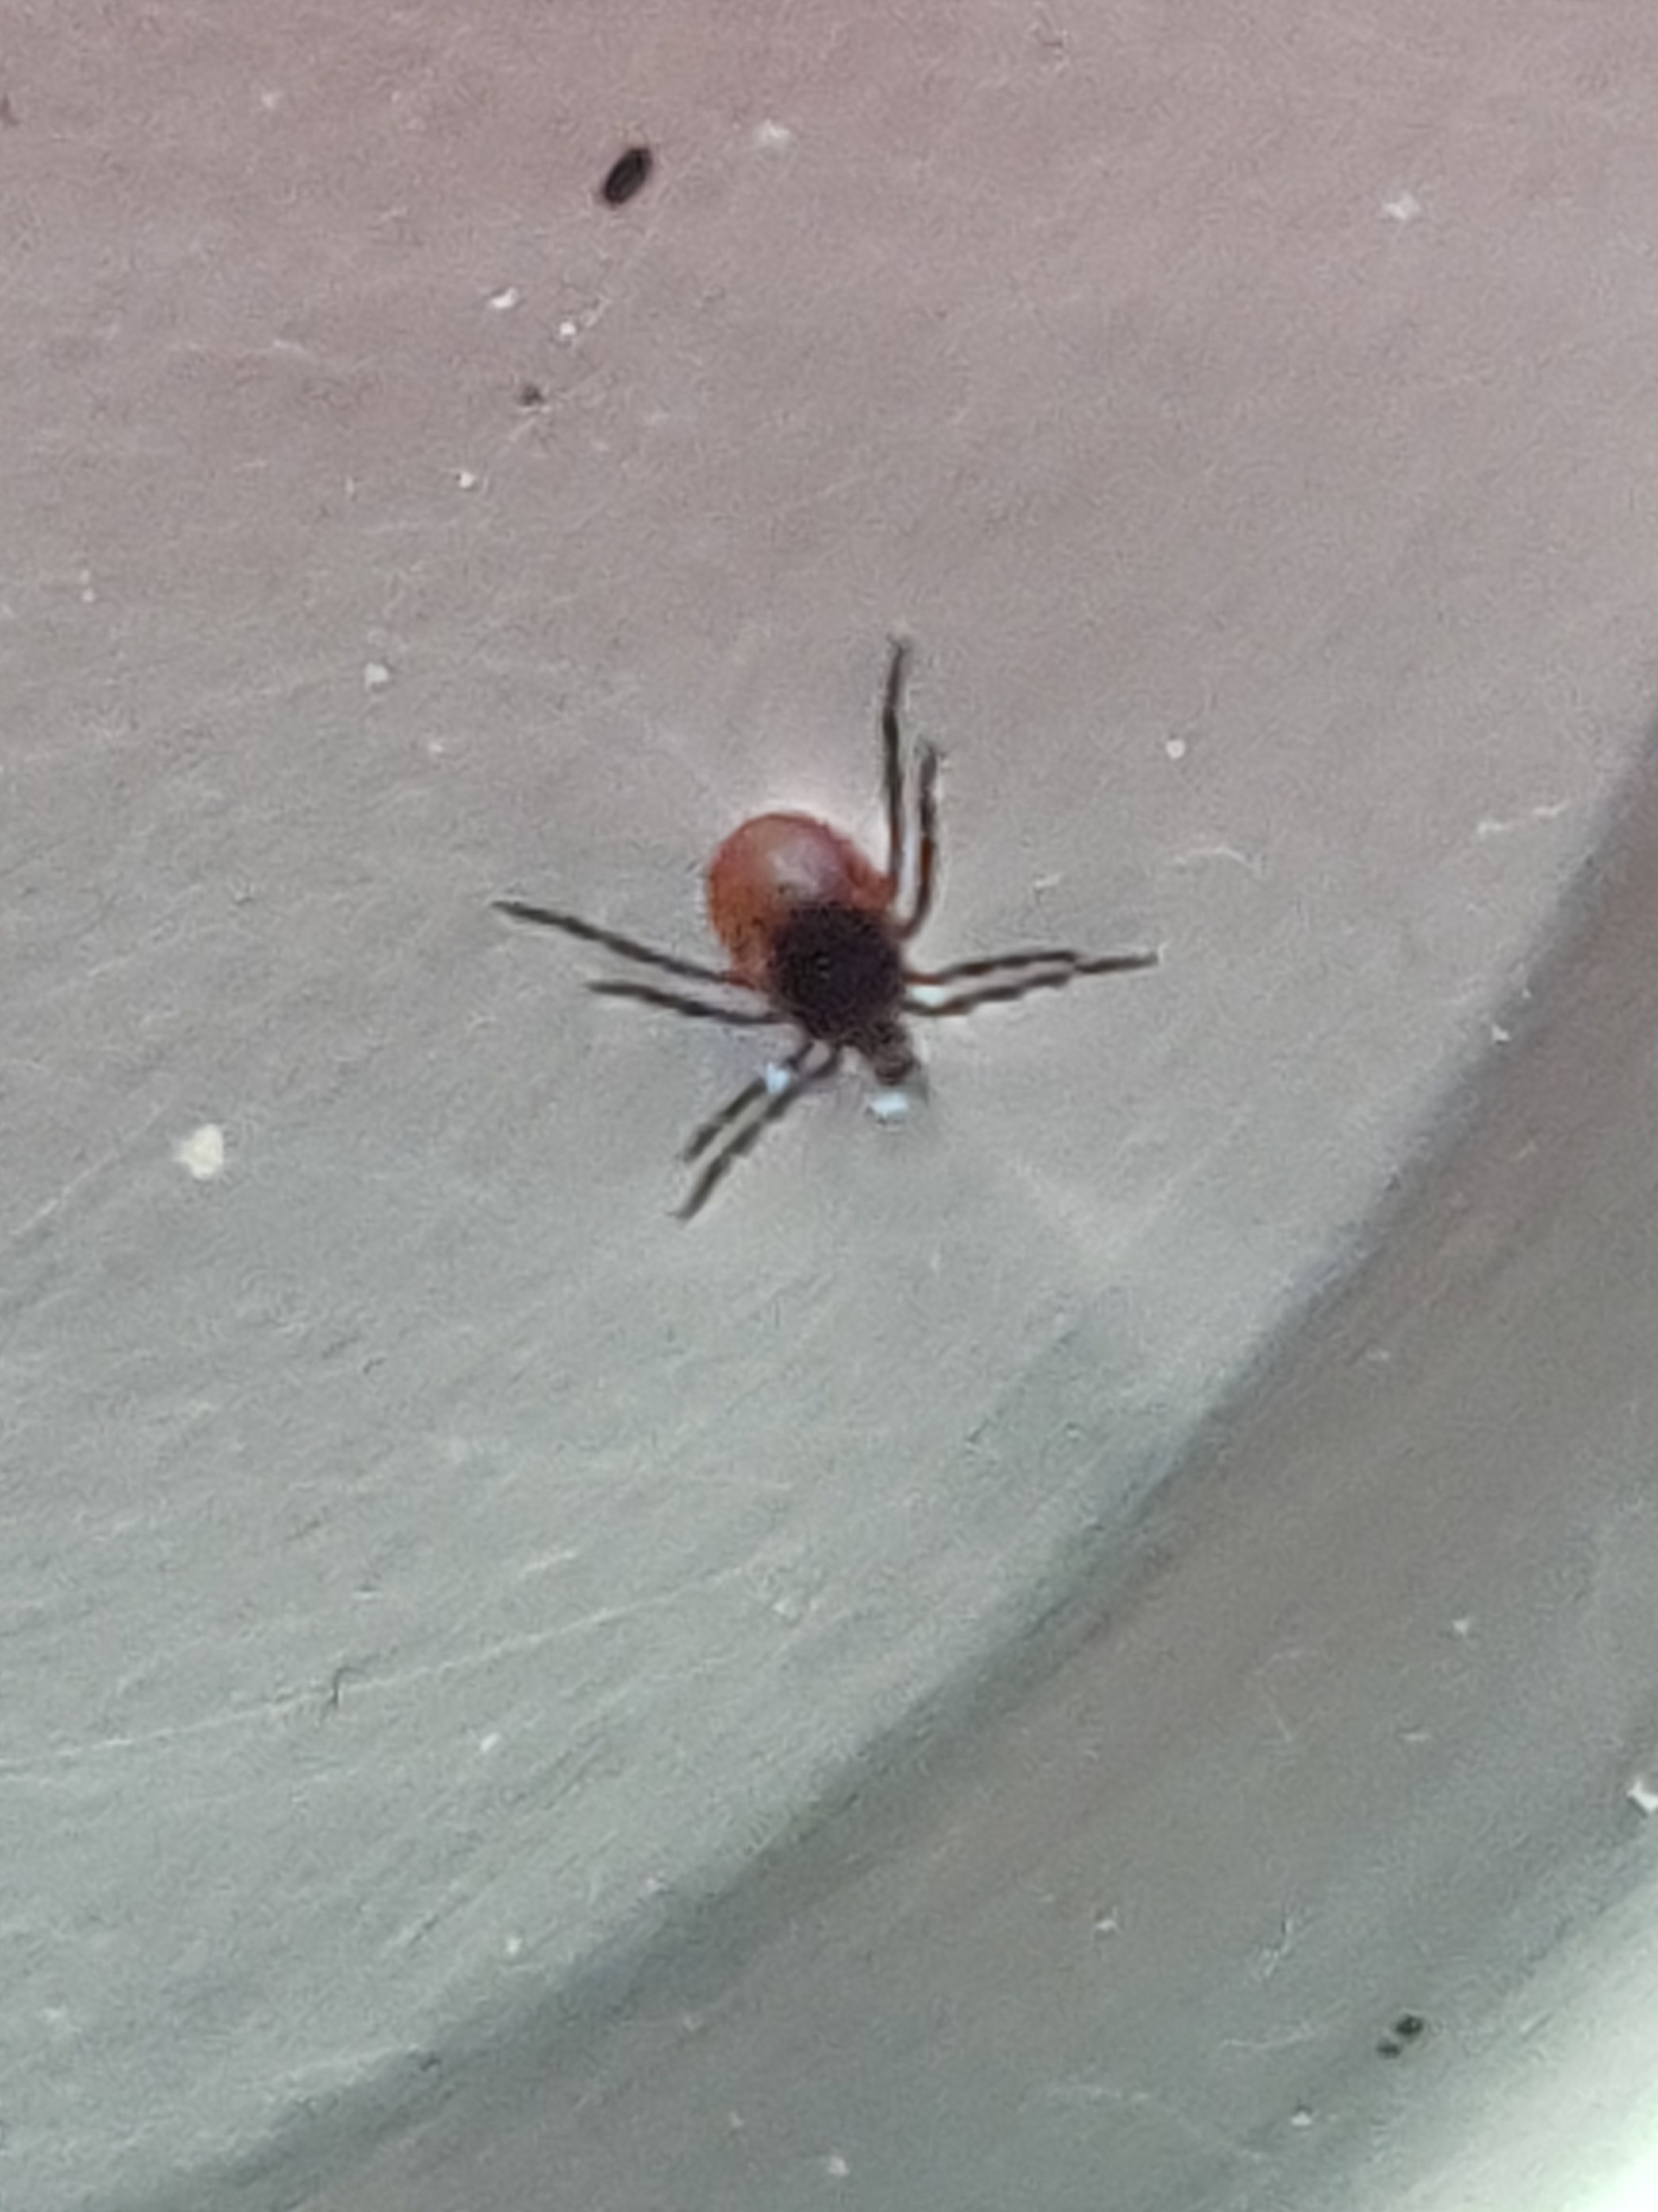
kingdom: Animalia
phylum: Arthropoda
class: Arachnida
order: Ixodida
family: Ixodidae
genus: Ixodes
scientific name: Ixodes ricinus
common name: Skovflåt
